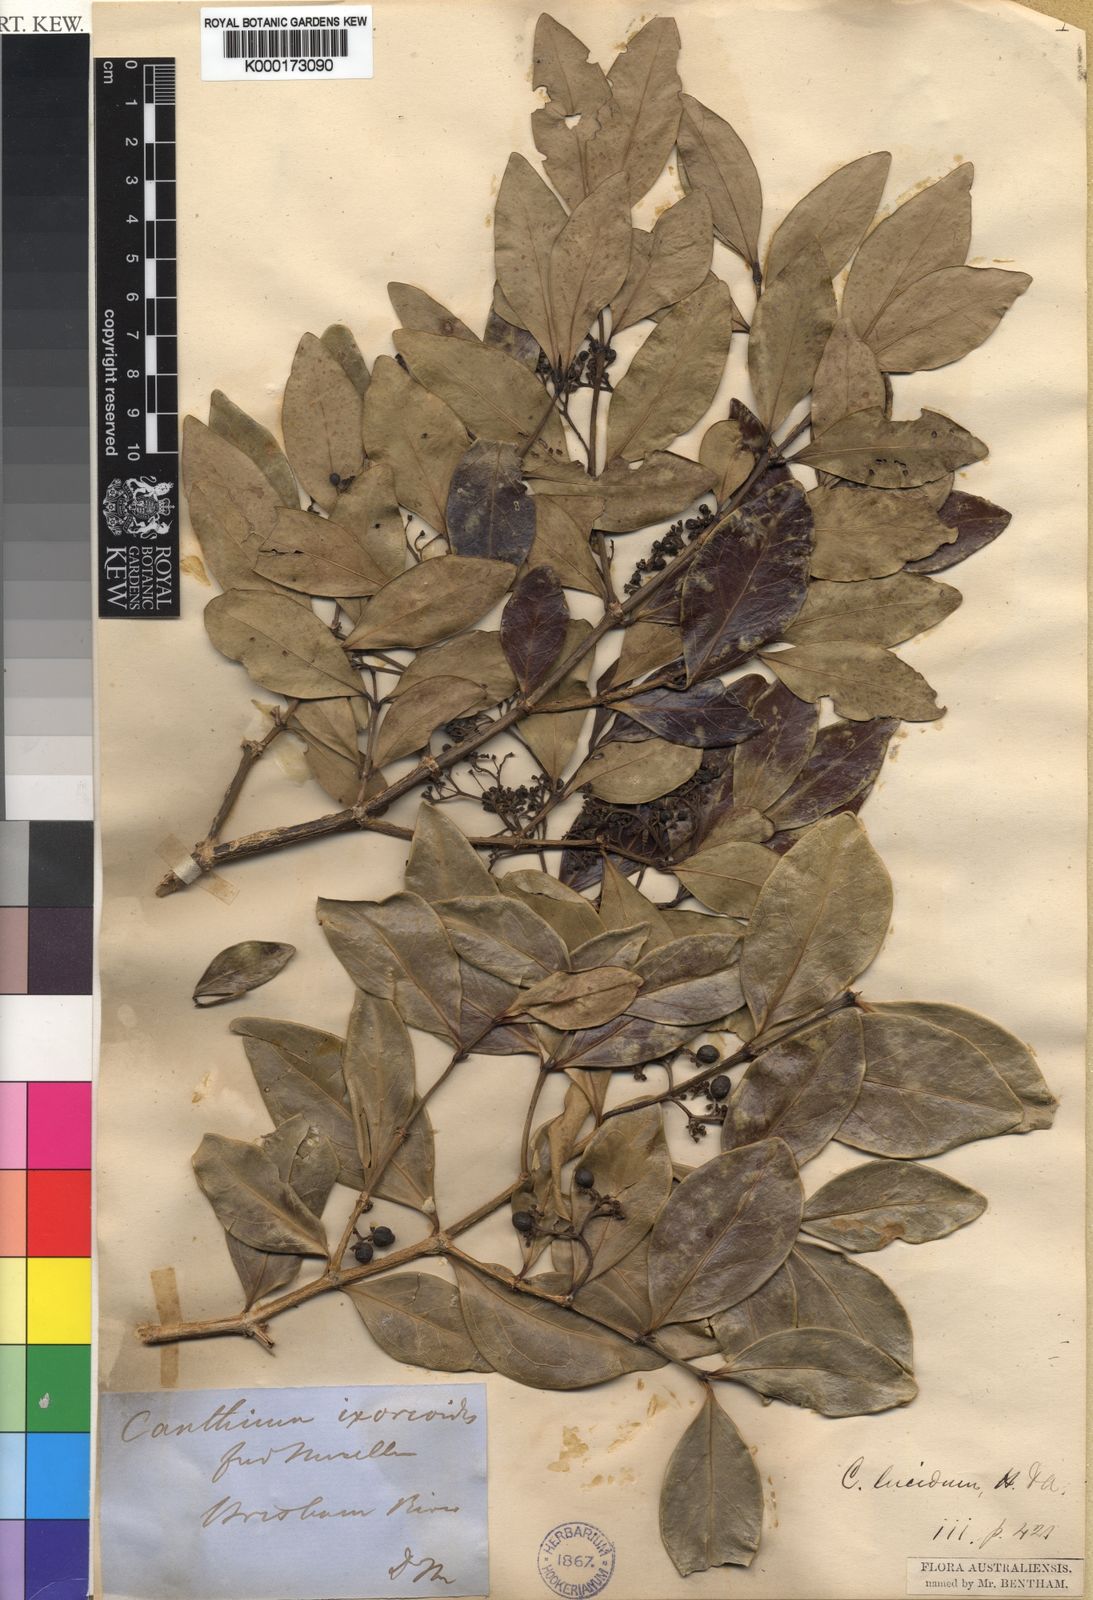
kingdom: Plantae
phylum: Tracheophyta
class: Magnoliopsida
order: Gentianales
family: Rubiaceae
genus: Psydrax
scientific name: Psydrax odoratus
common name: Alahe'e
